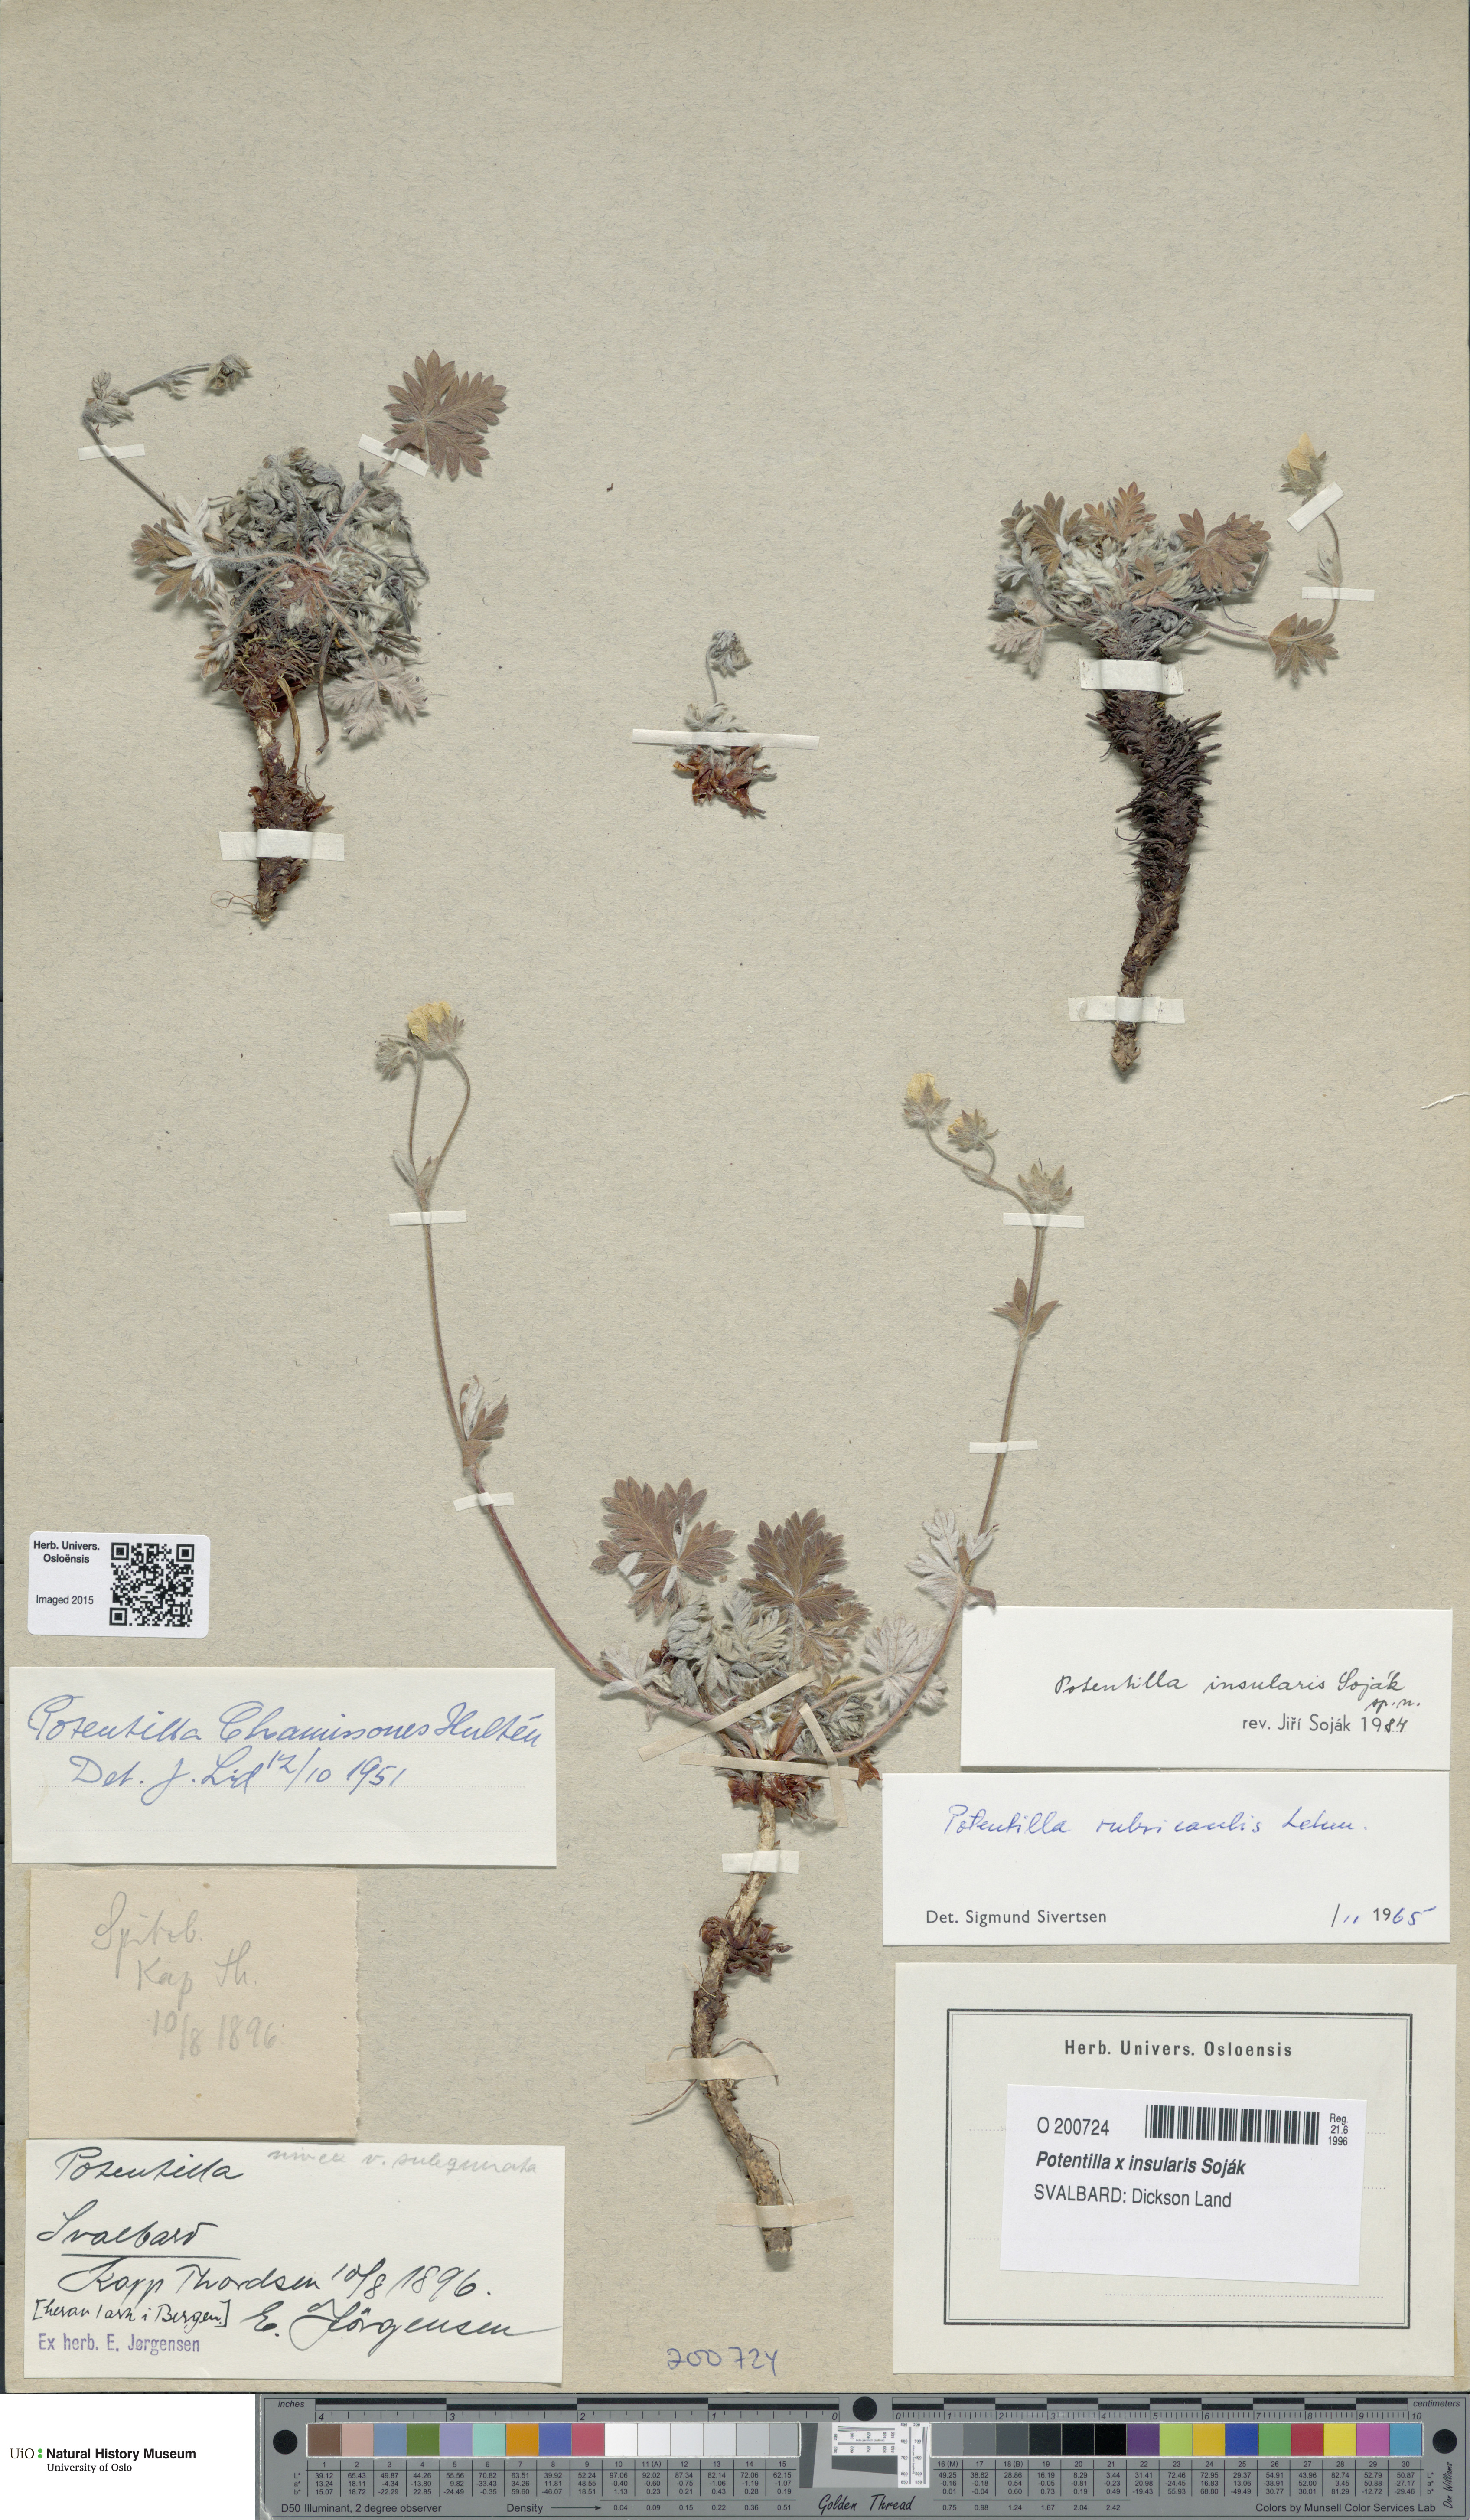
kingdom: Plantae
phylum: Tracheophyta
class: Magnoliopsida
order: Rosales
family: Rosaceae
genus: Potentilla
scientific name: Potentilla insularis
